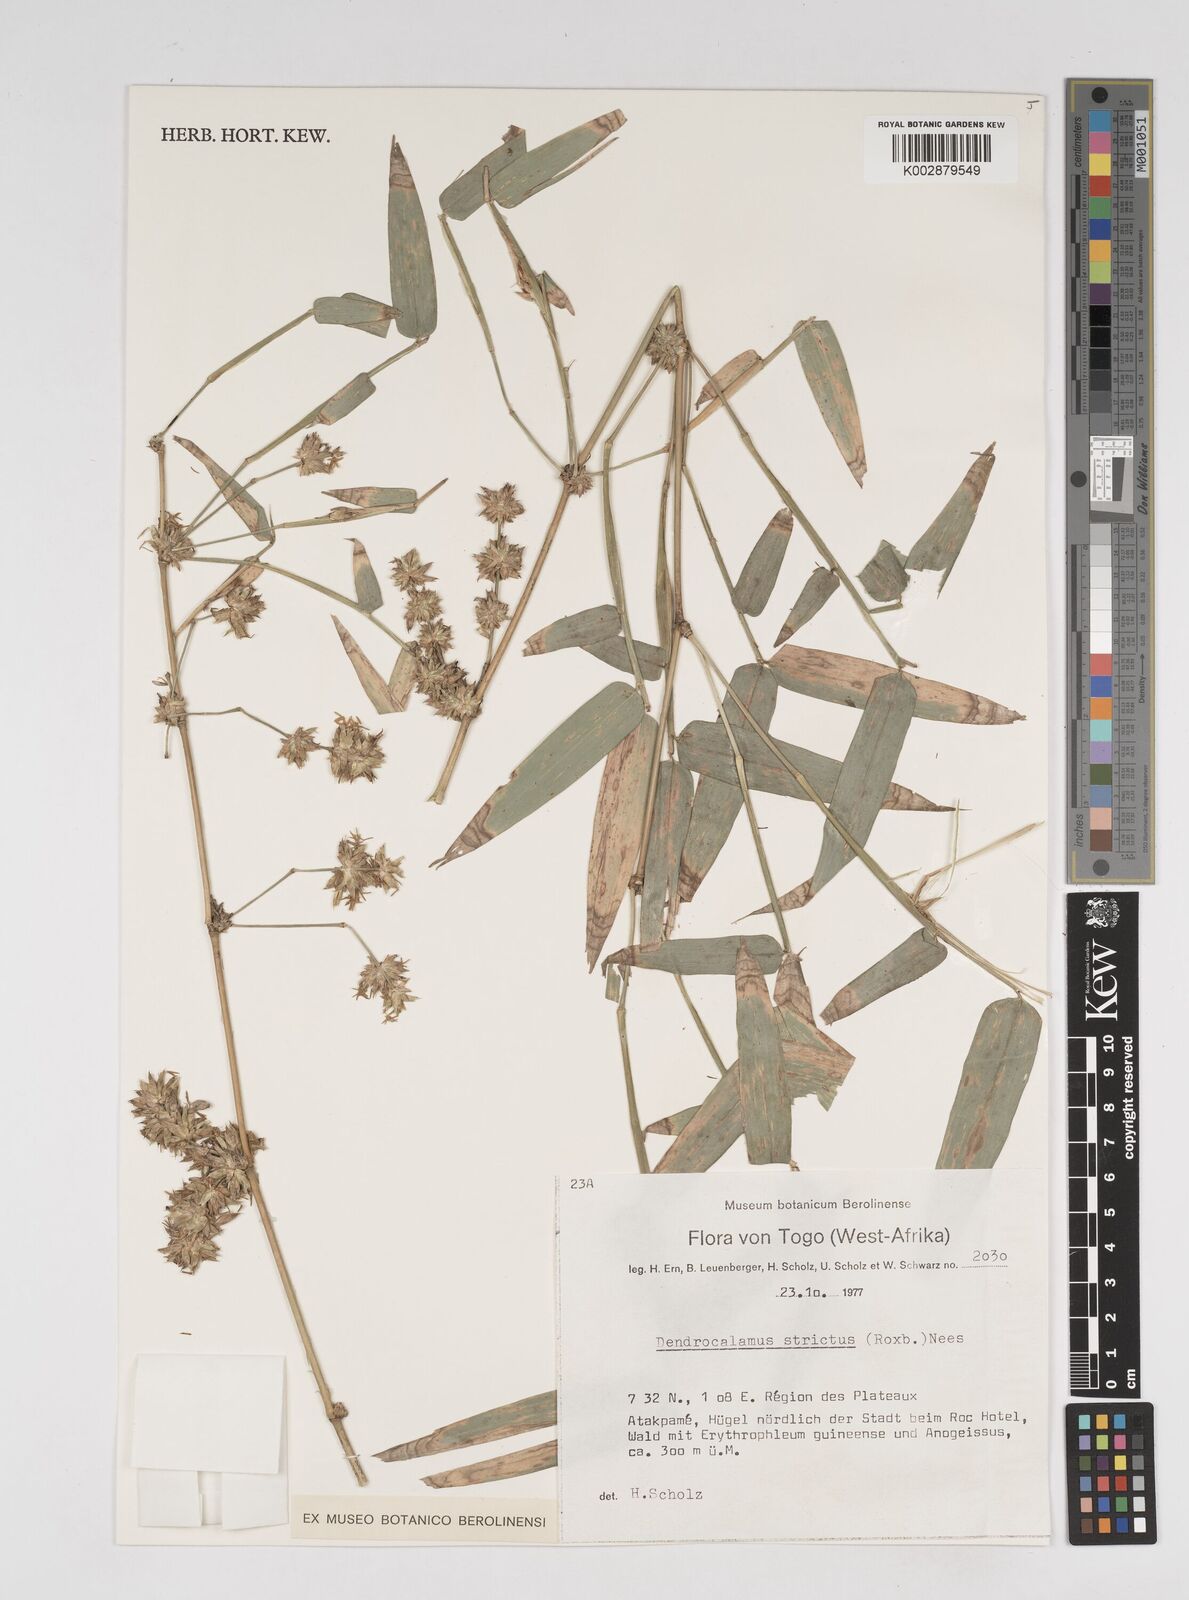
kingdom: Plantae
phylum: Tracheophyta
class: Liliopsida
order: Poales
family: Poaceae
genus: Dendrocalamus
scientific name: Dendrocalamus strictus
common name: Male bamboo
